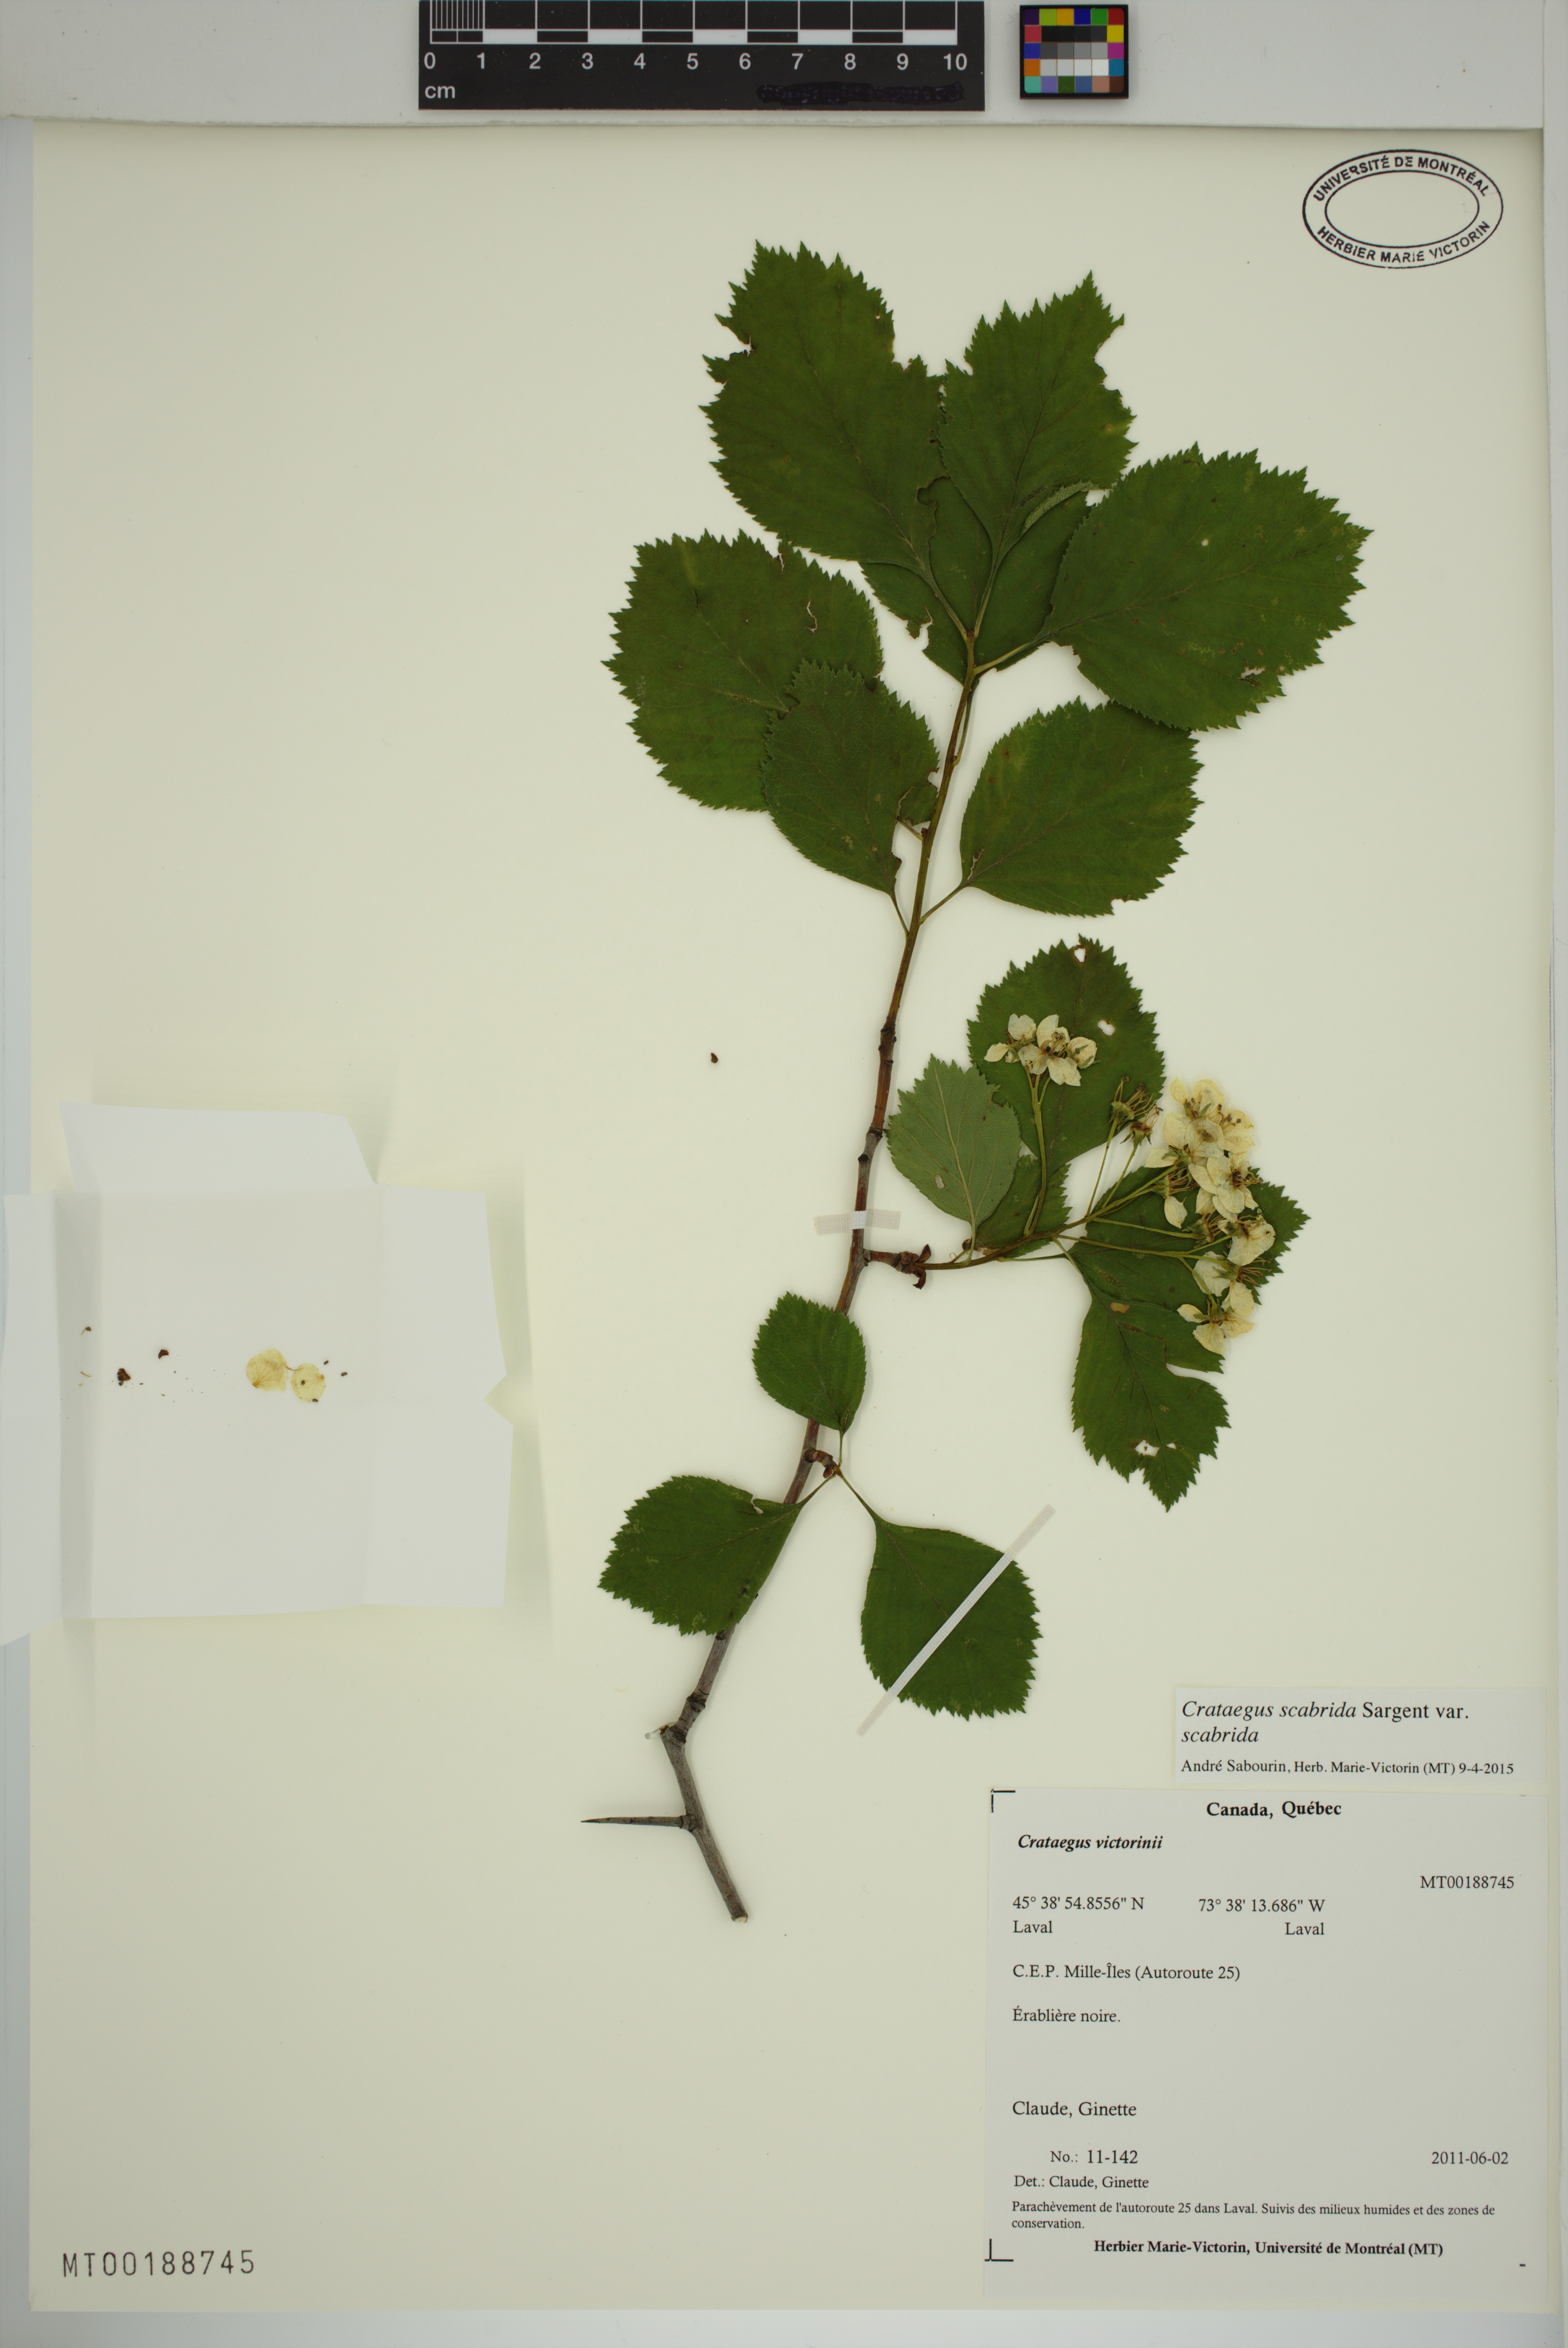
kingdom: Plantae
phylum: Tracheophyta
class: Magnoliopsida
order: Rosales
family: Rosaceae
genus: Crataegus
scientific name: Crataegus macracantha
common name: Large-thorn hawthorn
